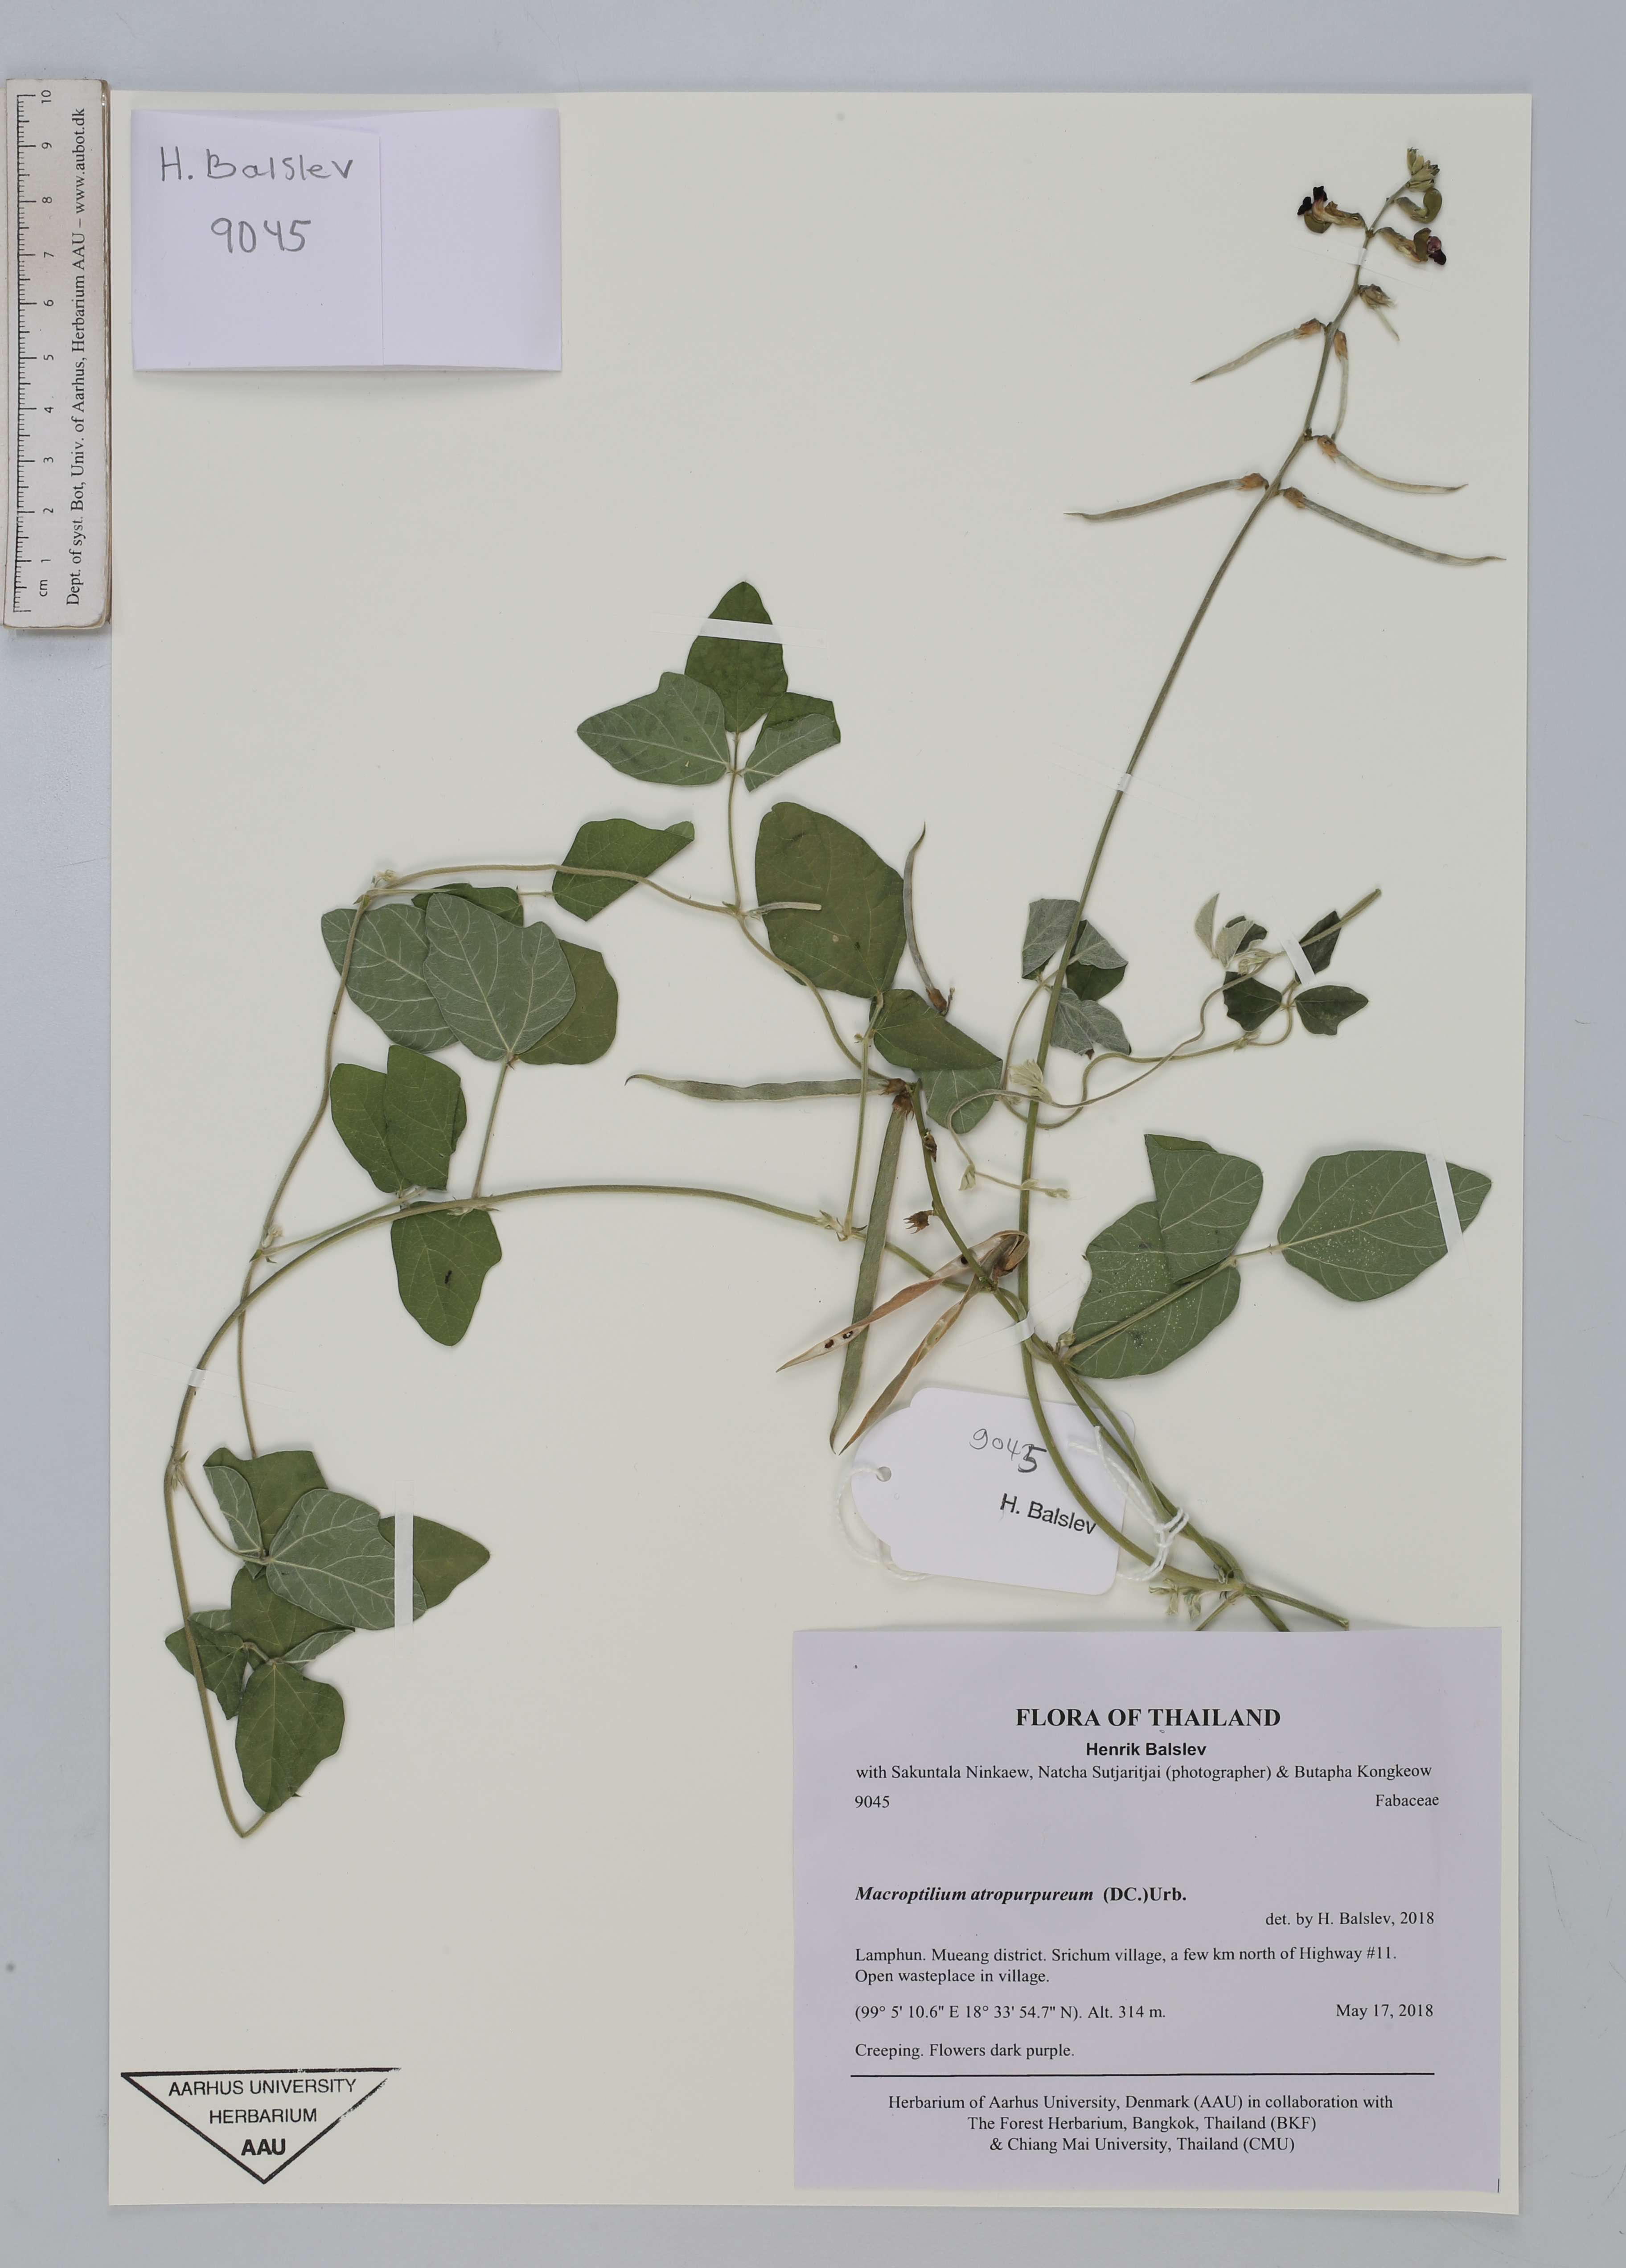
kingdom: Plantae
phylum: Tracheophyta
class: Magnoliopsida
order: Fabales
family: Fabaceae
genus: Macroptilium
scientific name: Macroptilium atropurpureum
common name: Purple bushbean
